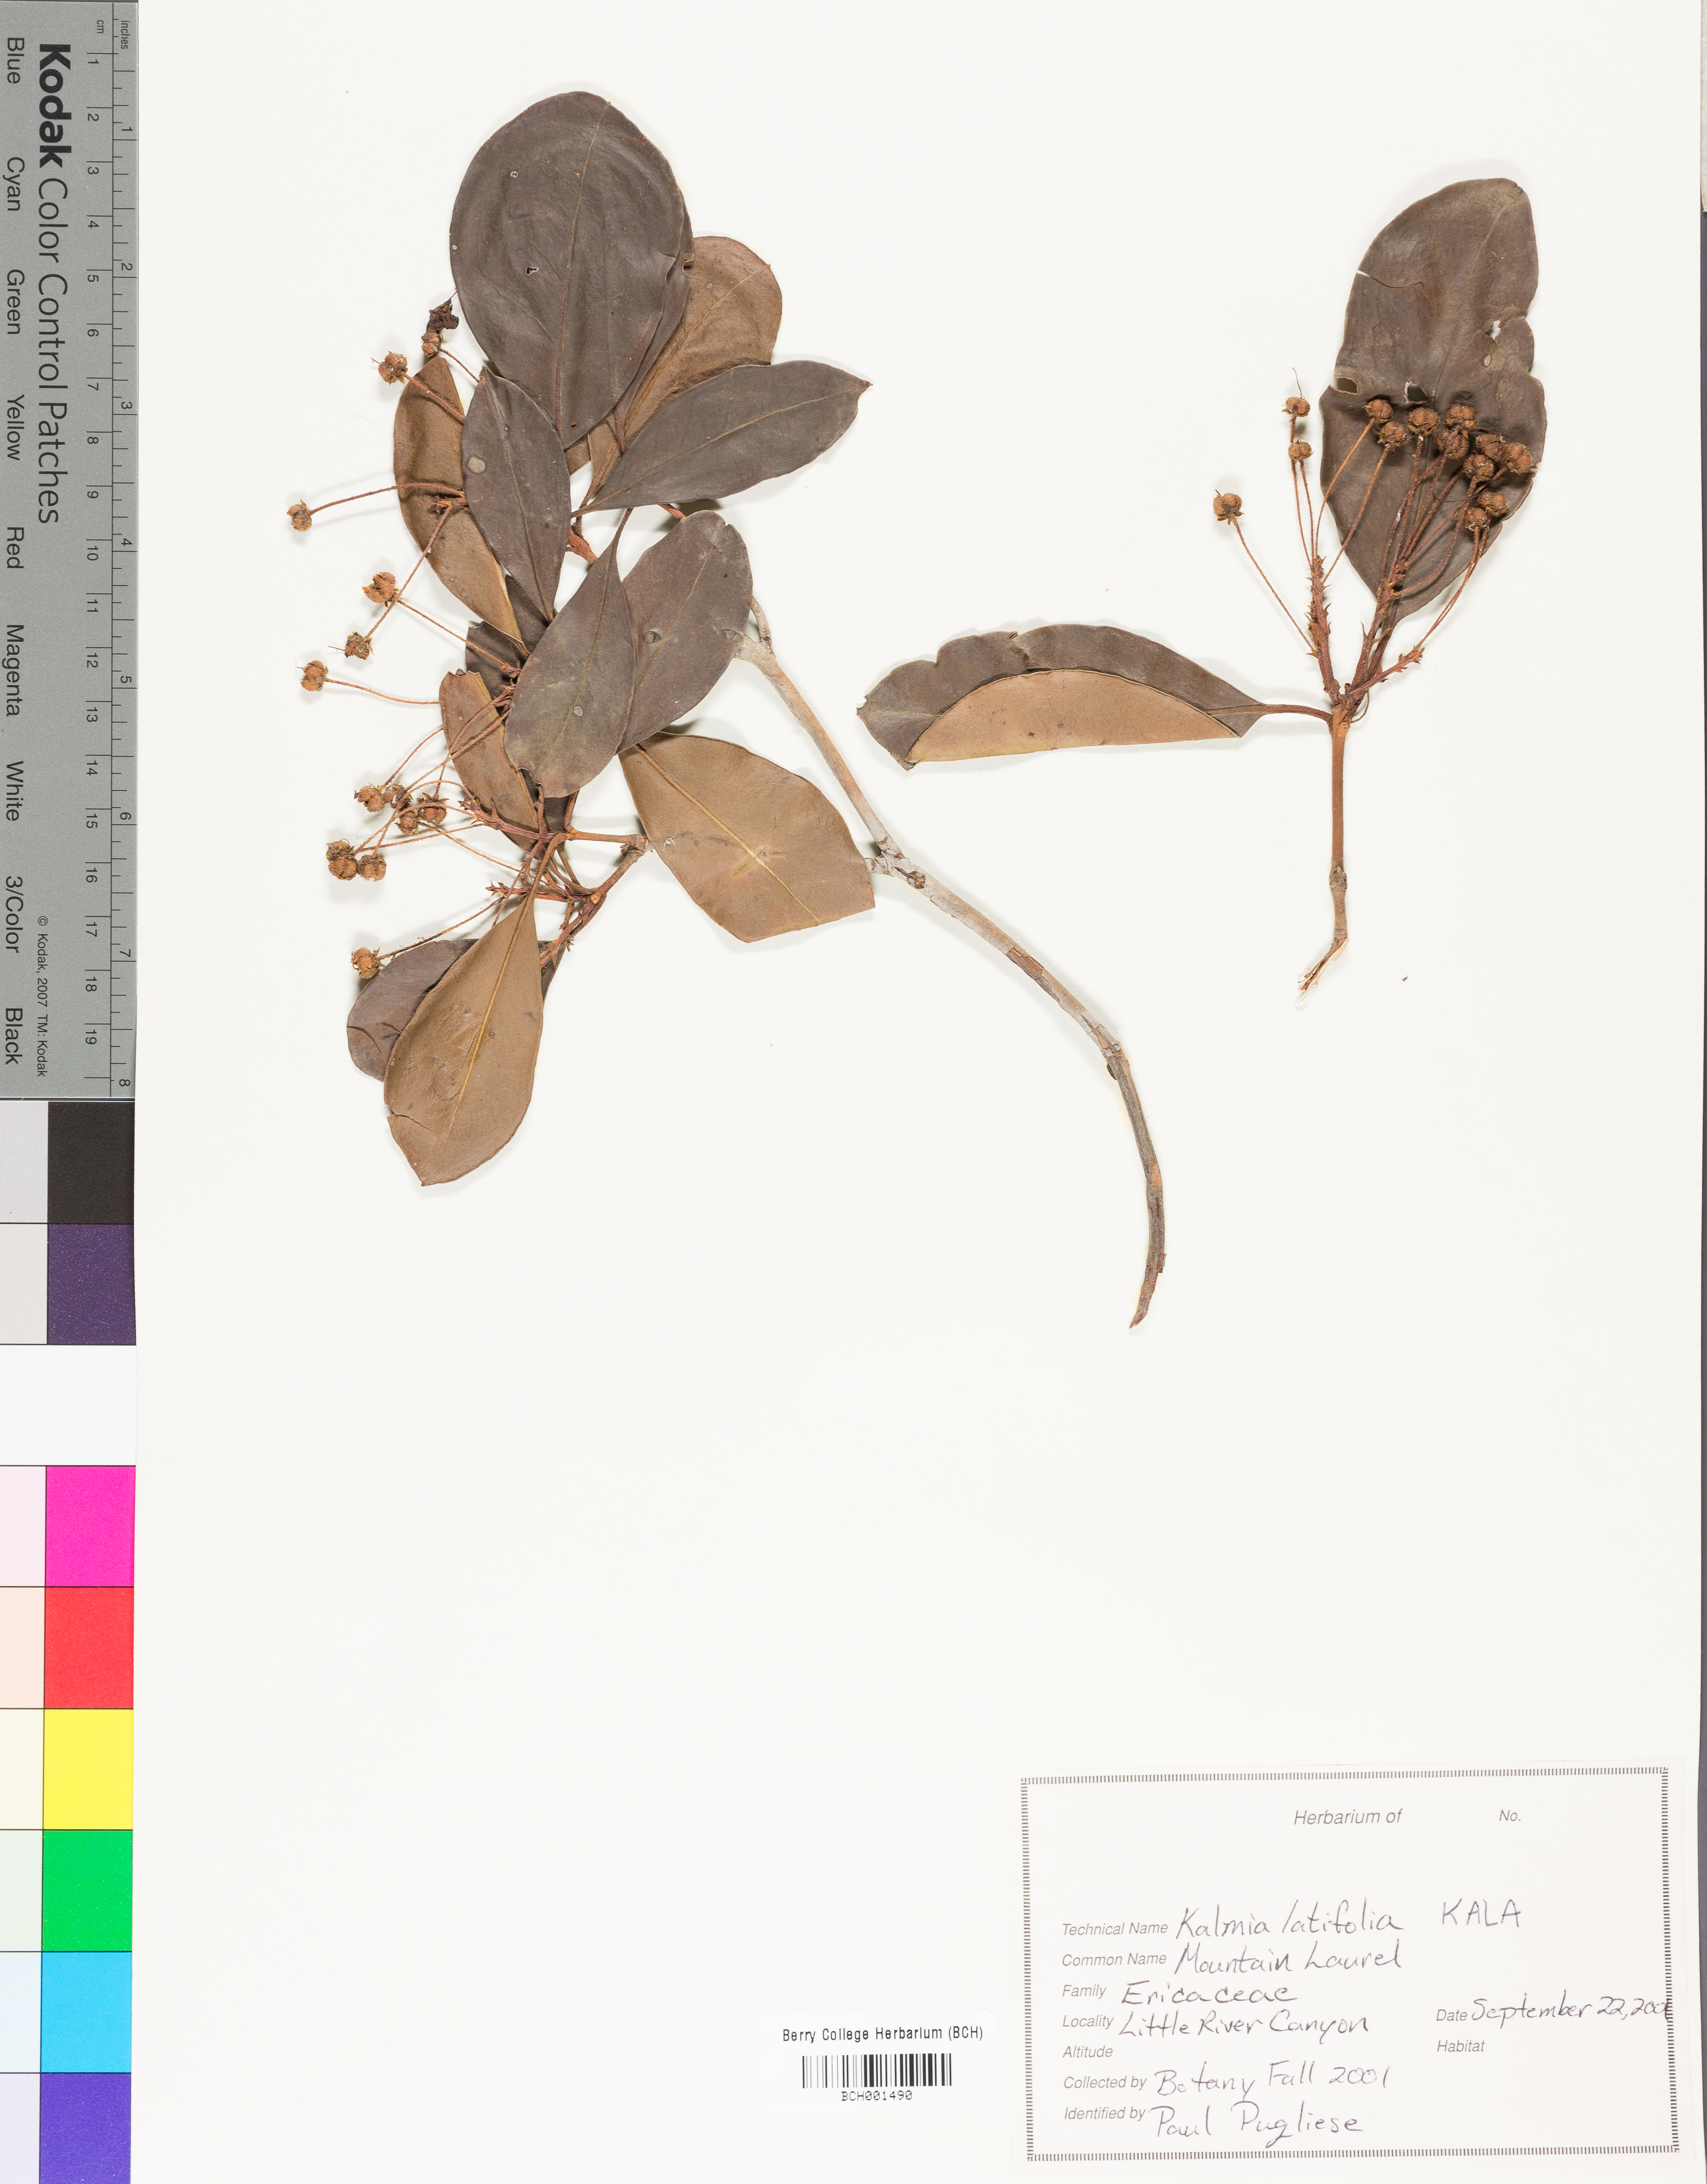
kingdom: Plantae
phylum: Tracheophyta
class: Magnoliopsida
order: Ericales
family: Ericaceae
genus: Kalmia
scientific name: Kalmia latifolia
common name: Mountain-laurel
